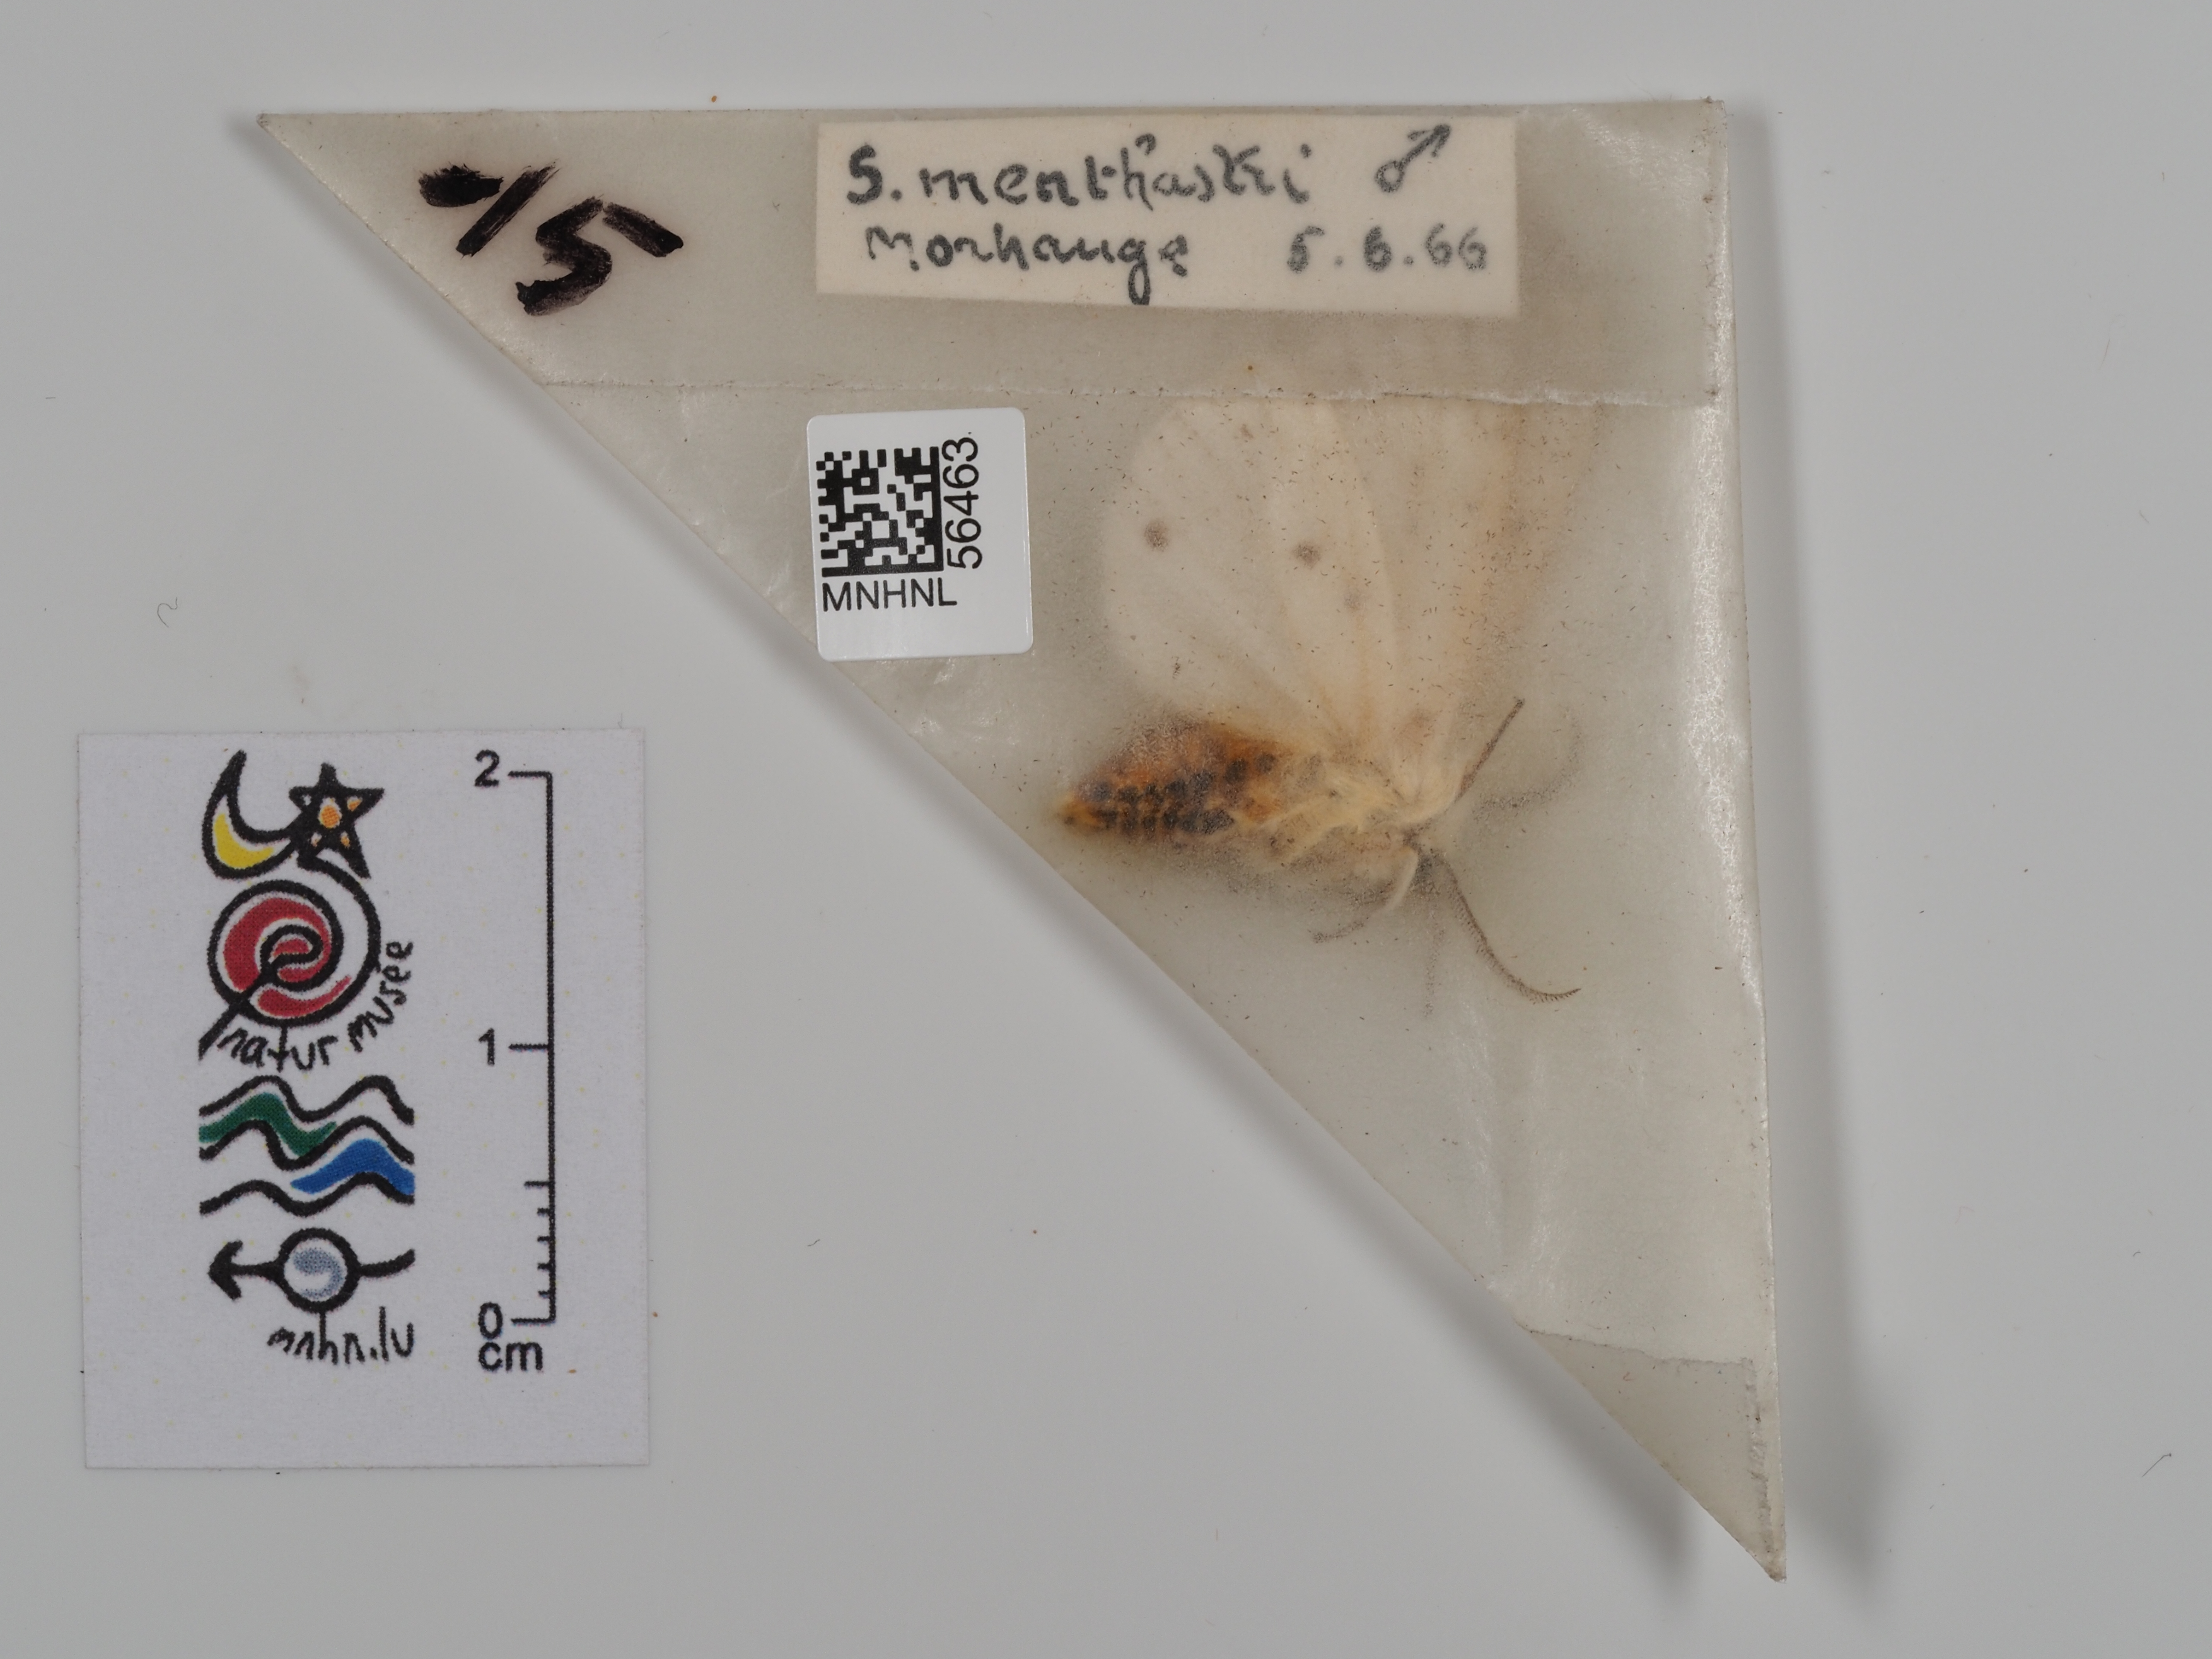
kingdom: Animalia
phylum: Arthropoda
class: Insecta
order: Lepidoptera
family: Erebidae
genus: Spilosoma
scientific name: Spilosoma lubricipeda
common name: White ermine
